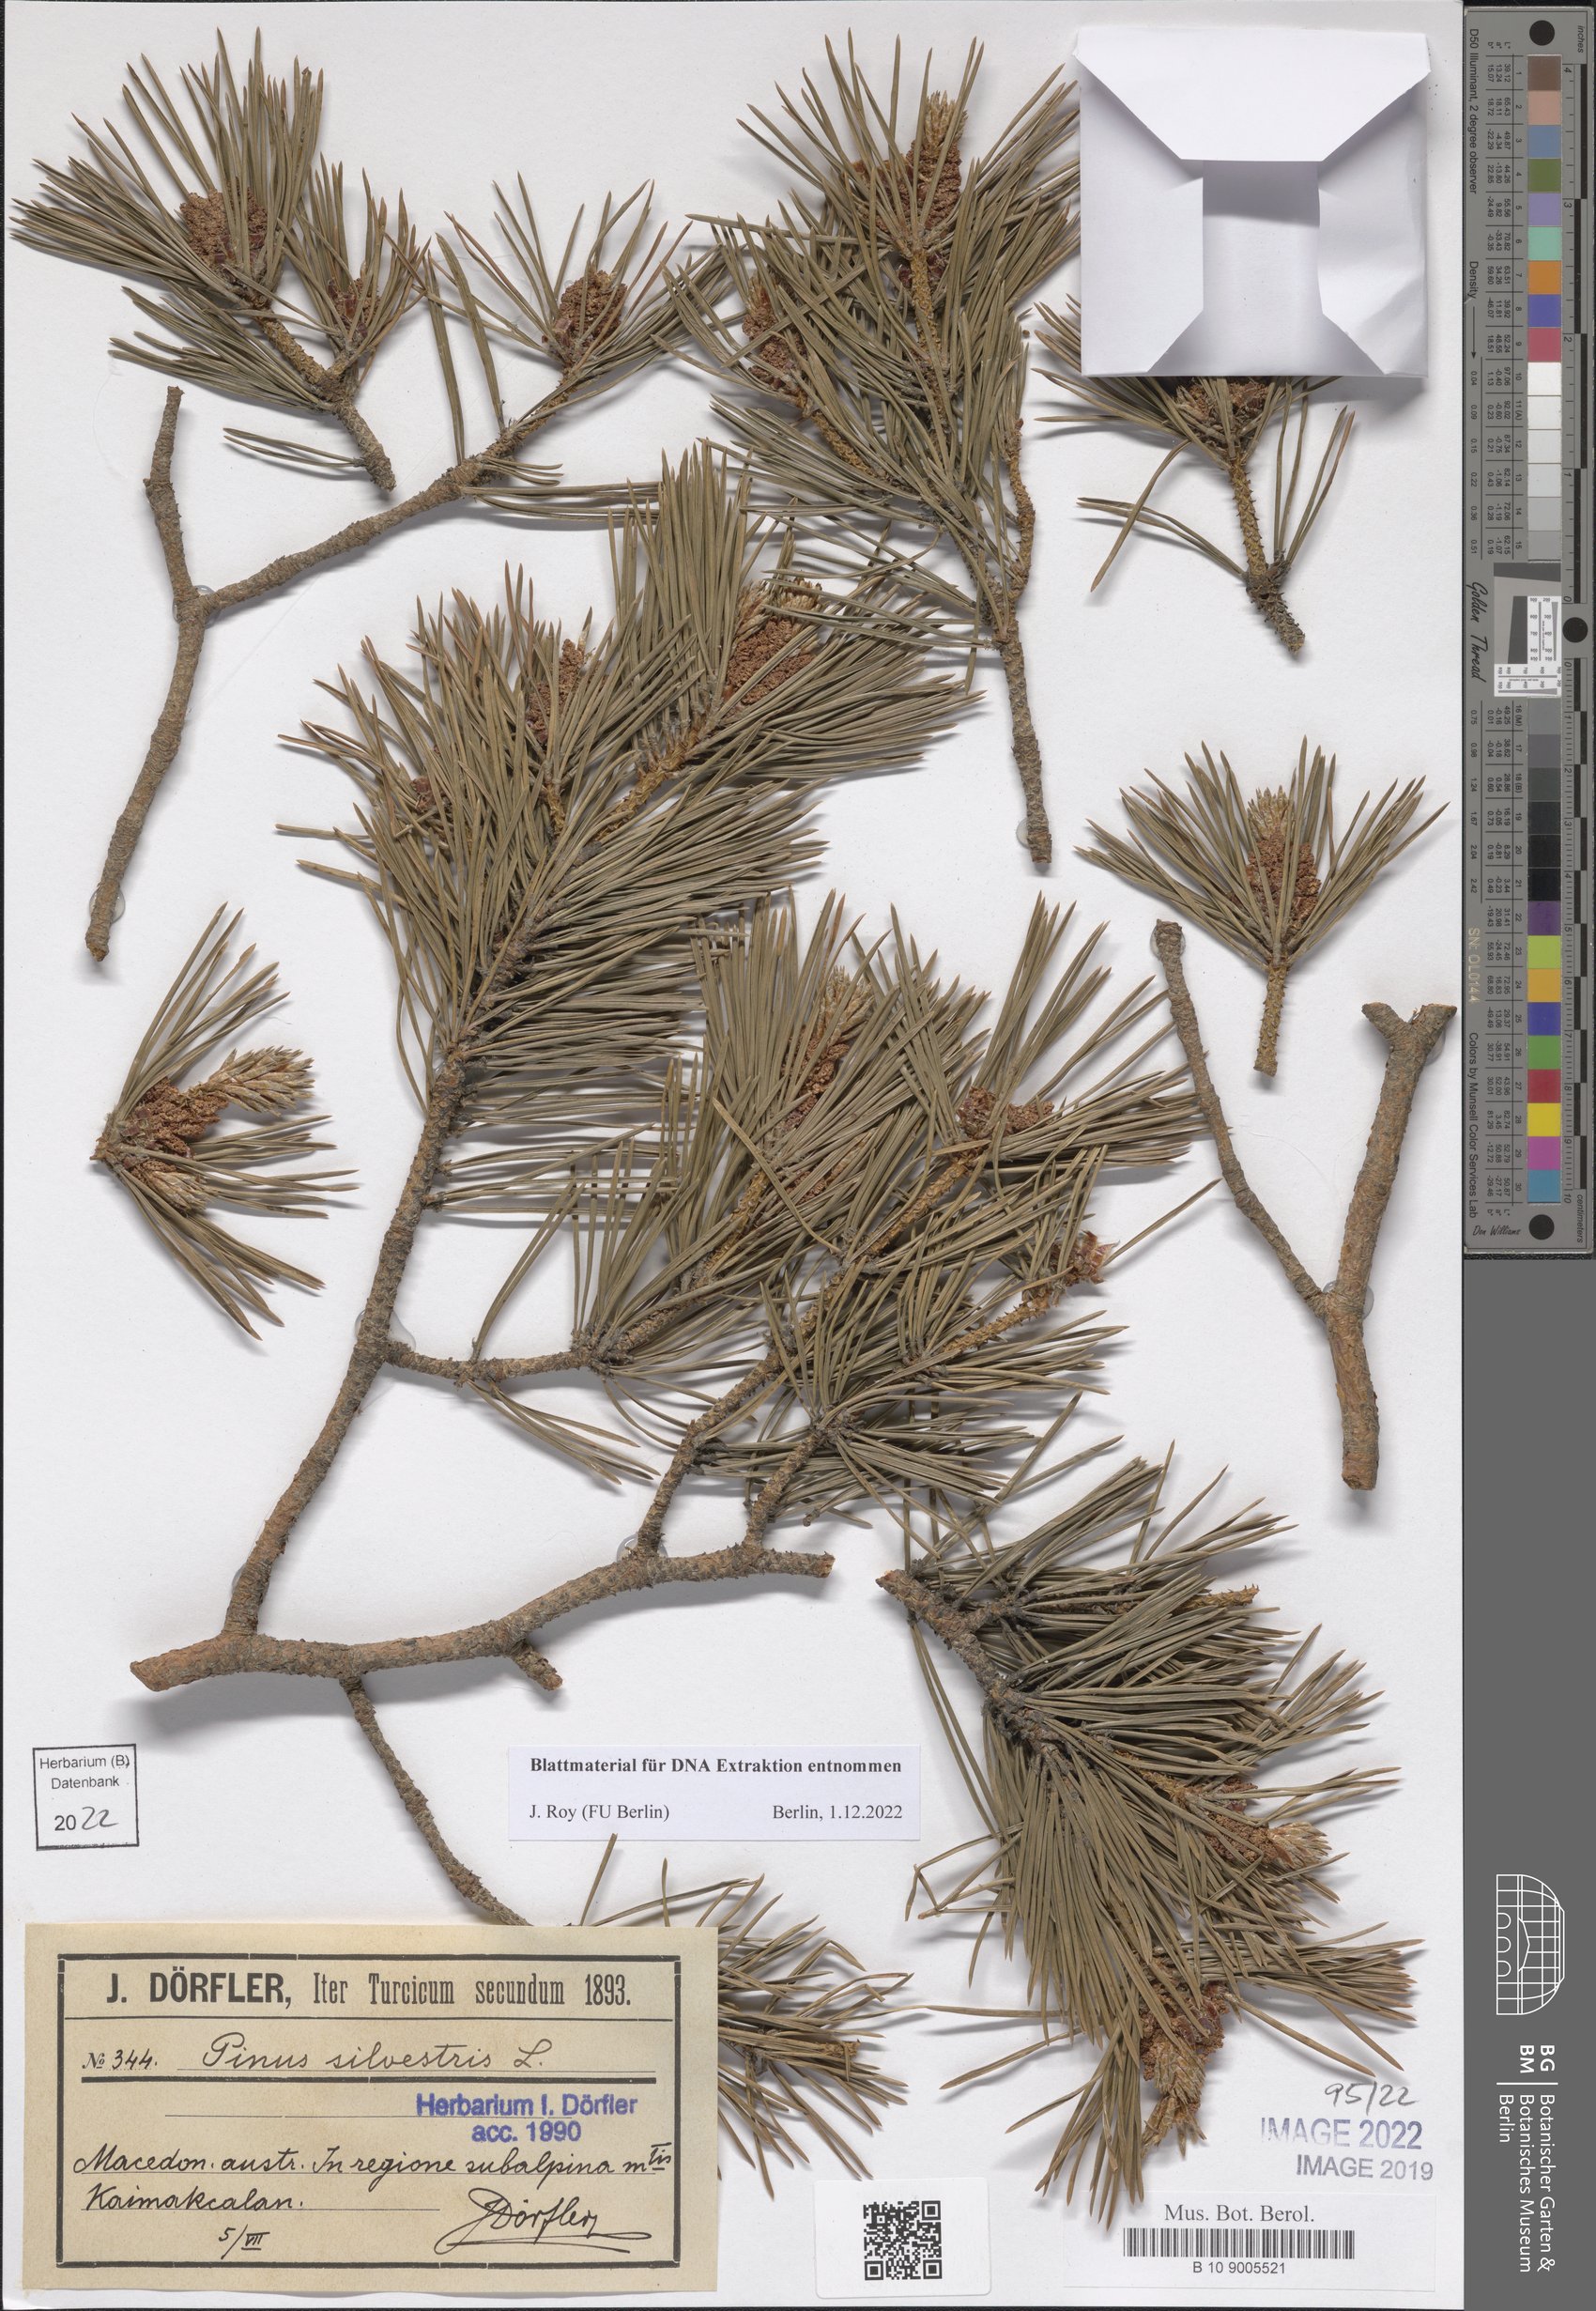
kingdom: Plantae
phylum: Tracheophyta
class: Pinopsida
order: Pinales
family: Pinaceae
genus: Pinus
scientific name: Pinus sylvestris
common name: Scots pine
